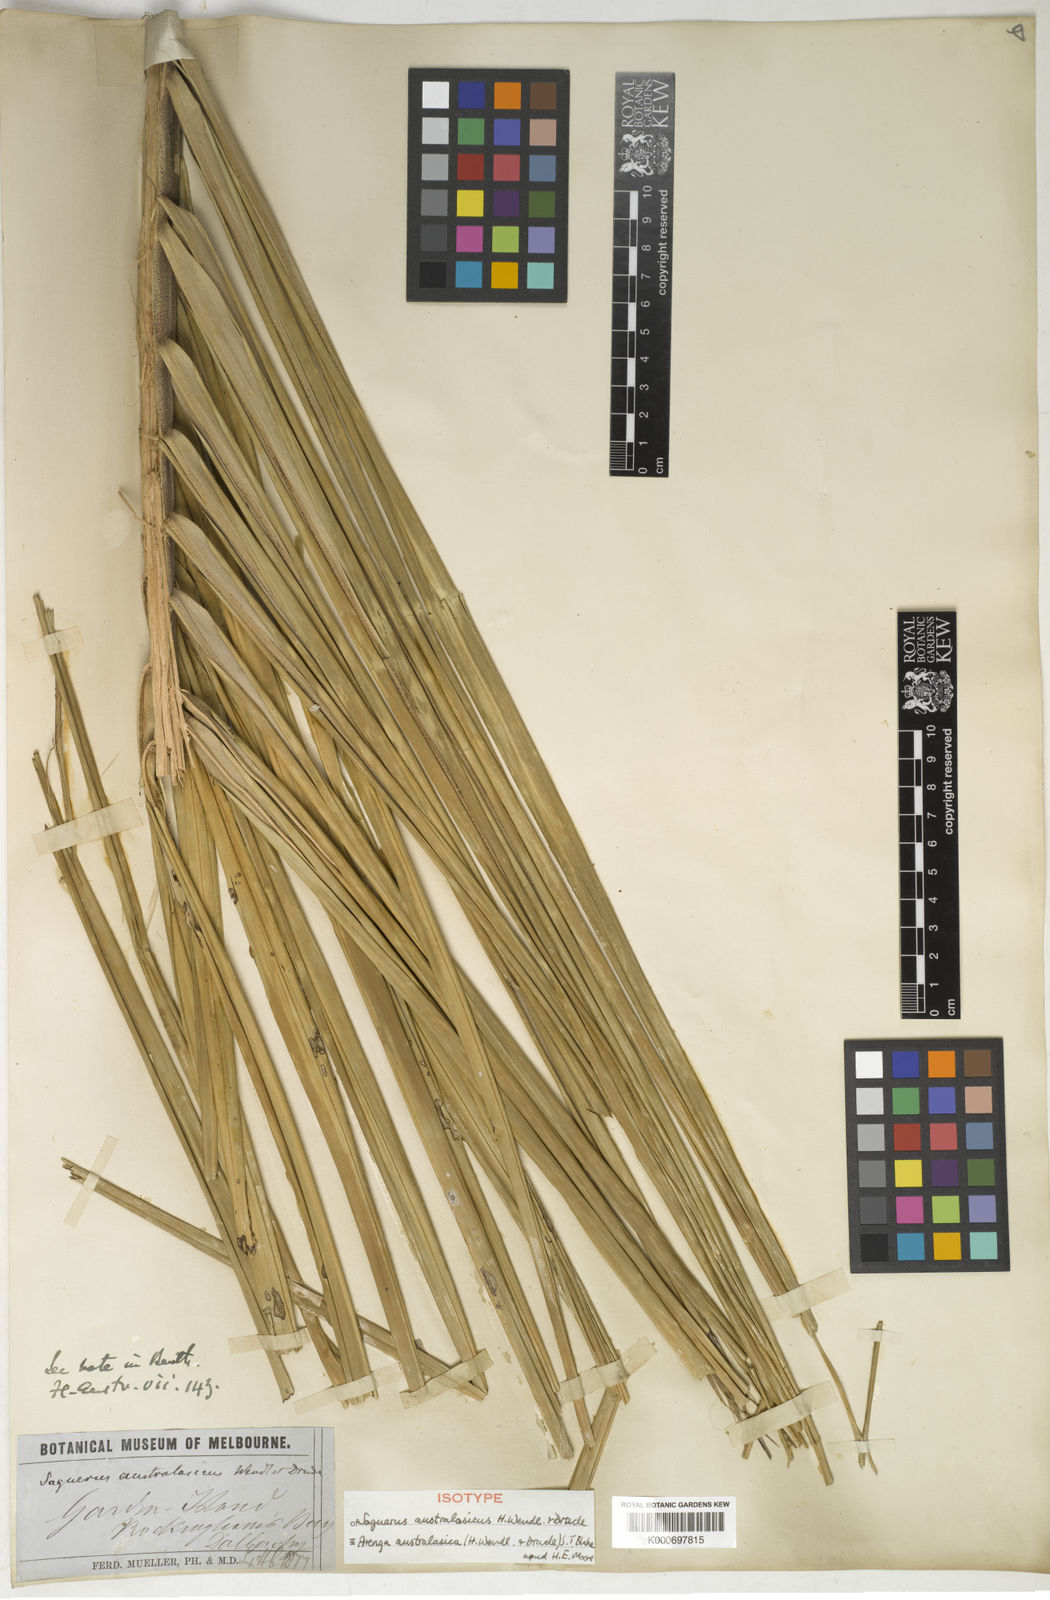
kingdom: Plantae
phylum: Tracheophyta
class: Liliopsida
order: Arecales
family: Arecaceae
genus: Arenga
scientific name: Arenga australasica
